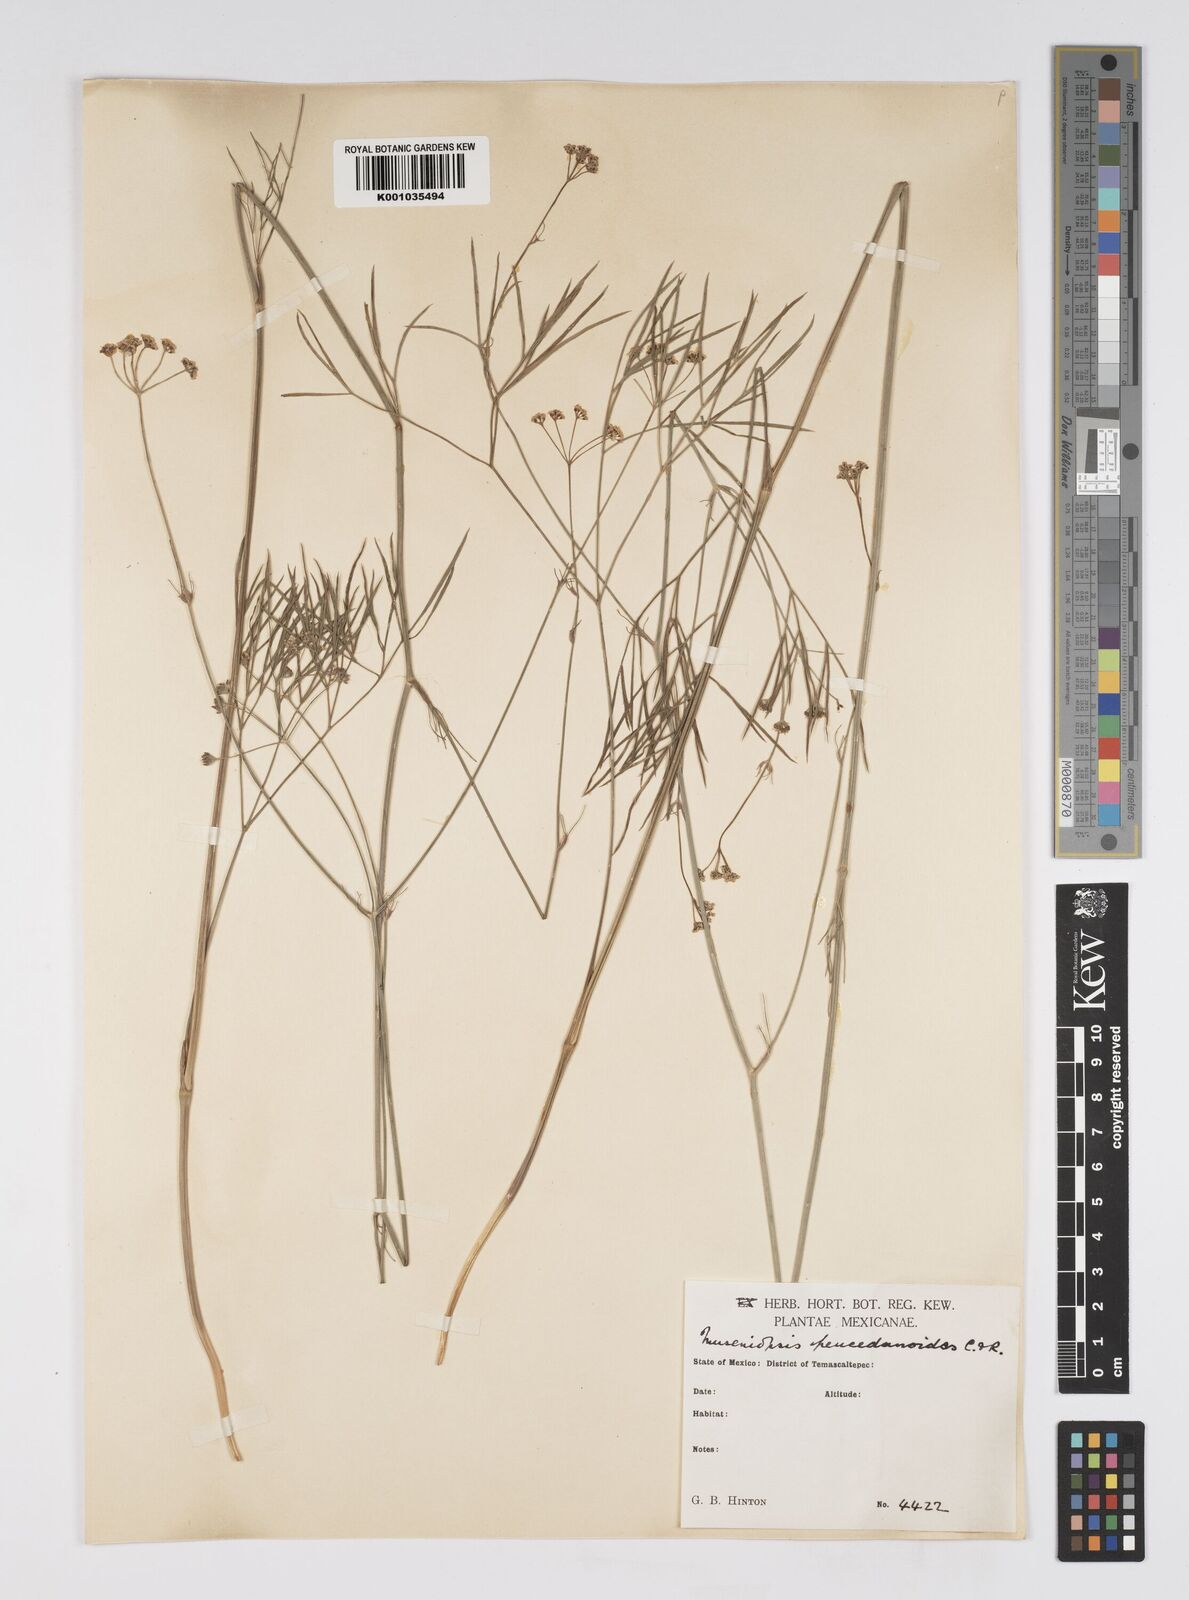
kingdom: Plantae
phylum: Tracheophyta
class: Magnoliopsida
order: Apiales
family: Apiaceae
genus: Donnellsmithia
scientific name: Donnellsmithia juncea
